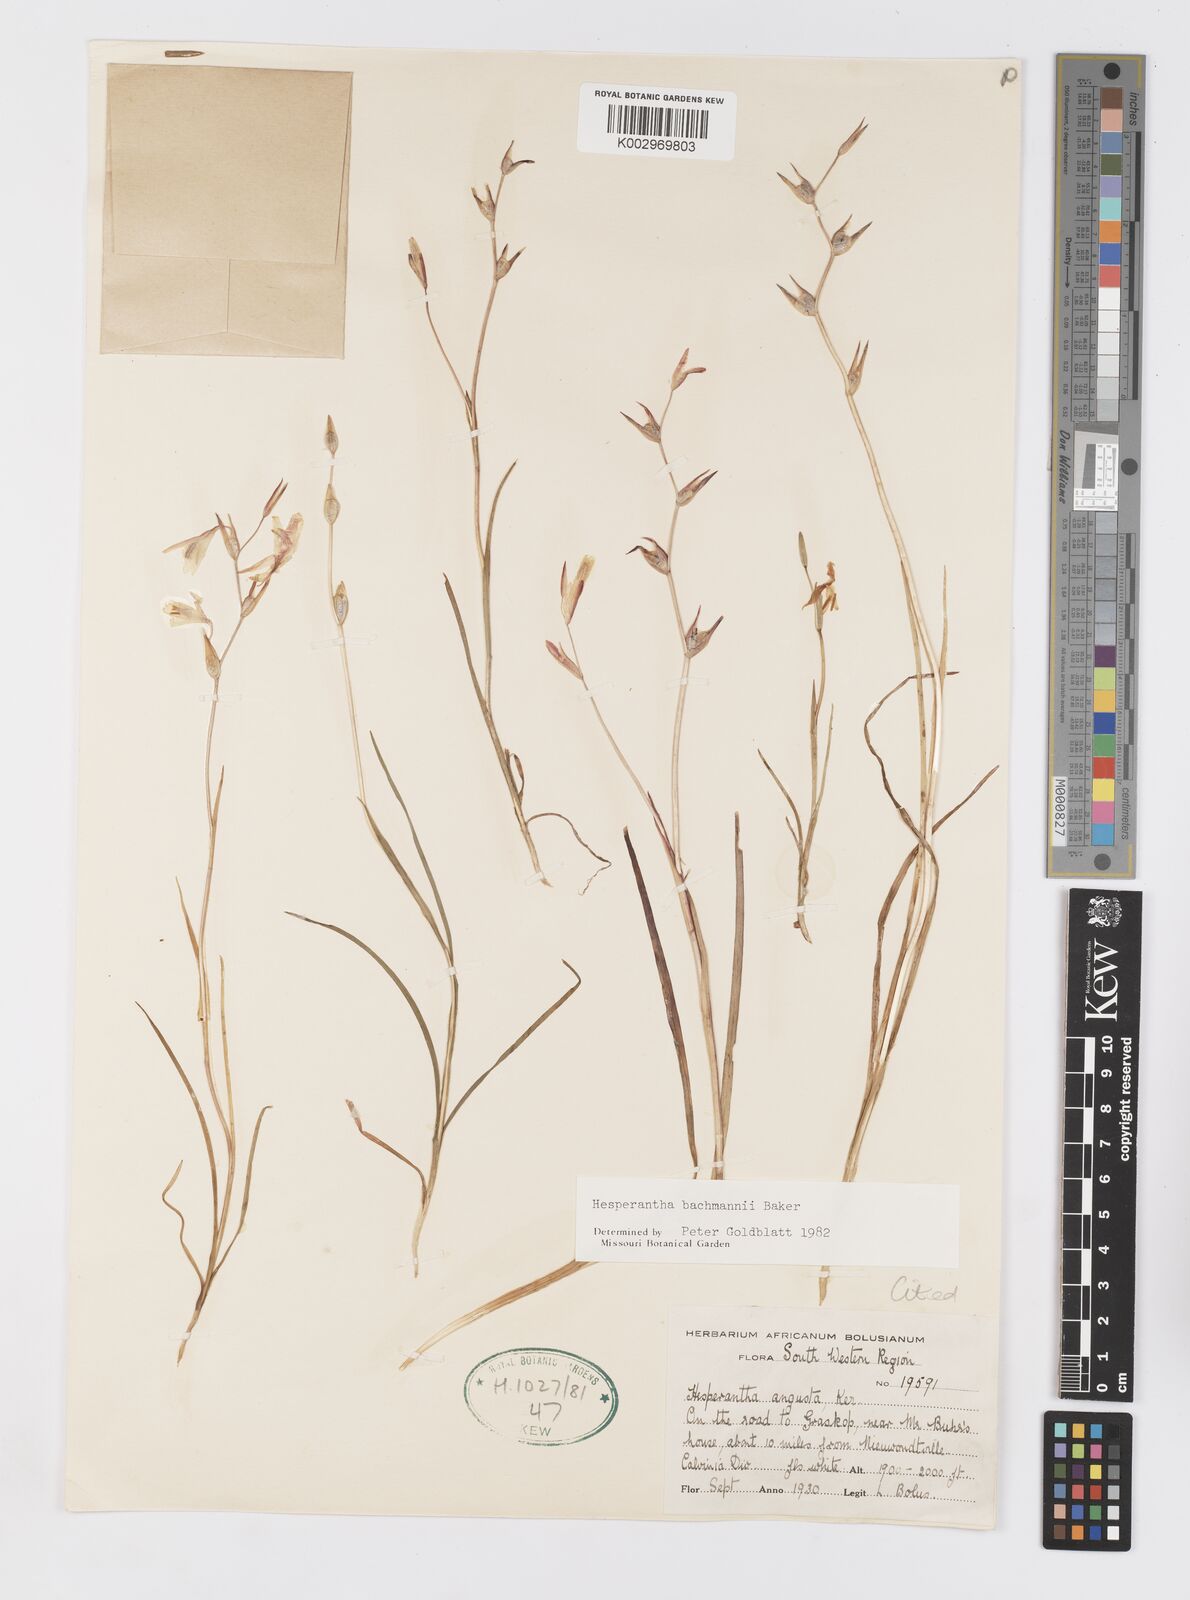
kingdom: Plantae
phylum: Tracheophyta
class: Liliopsida
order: Asparagales
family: Iridaceae
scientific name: Iridaceae
